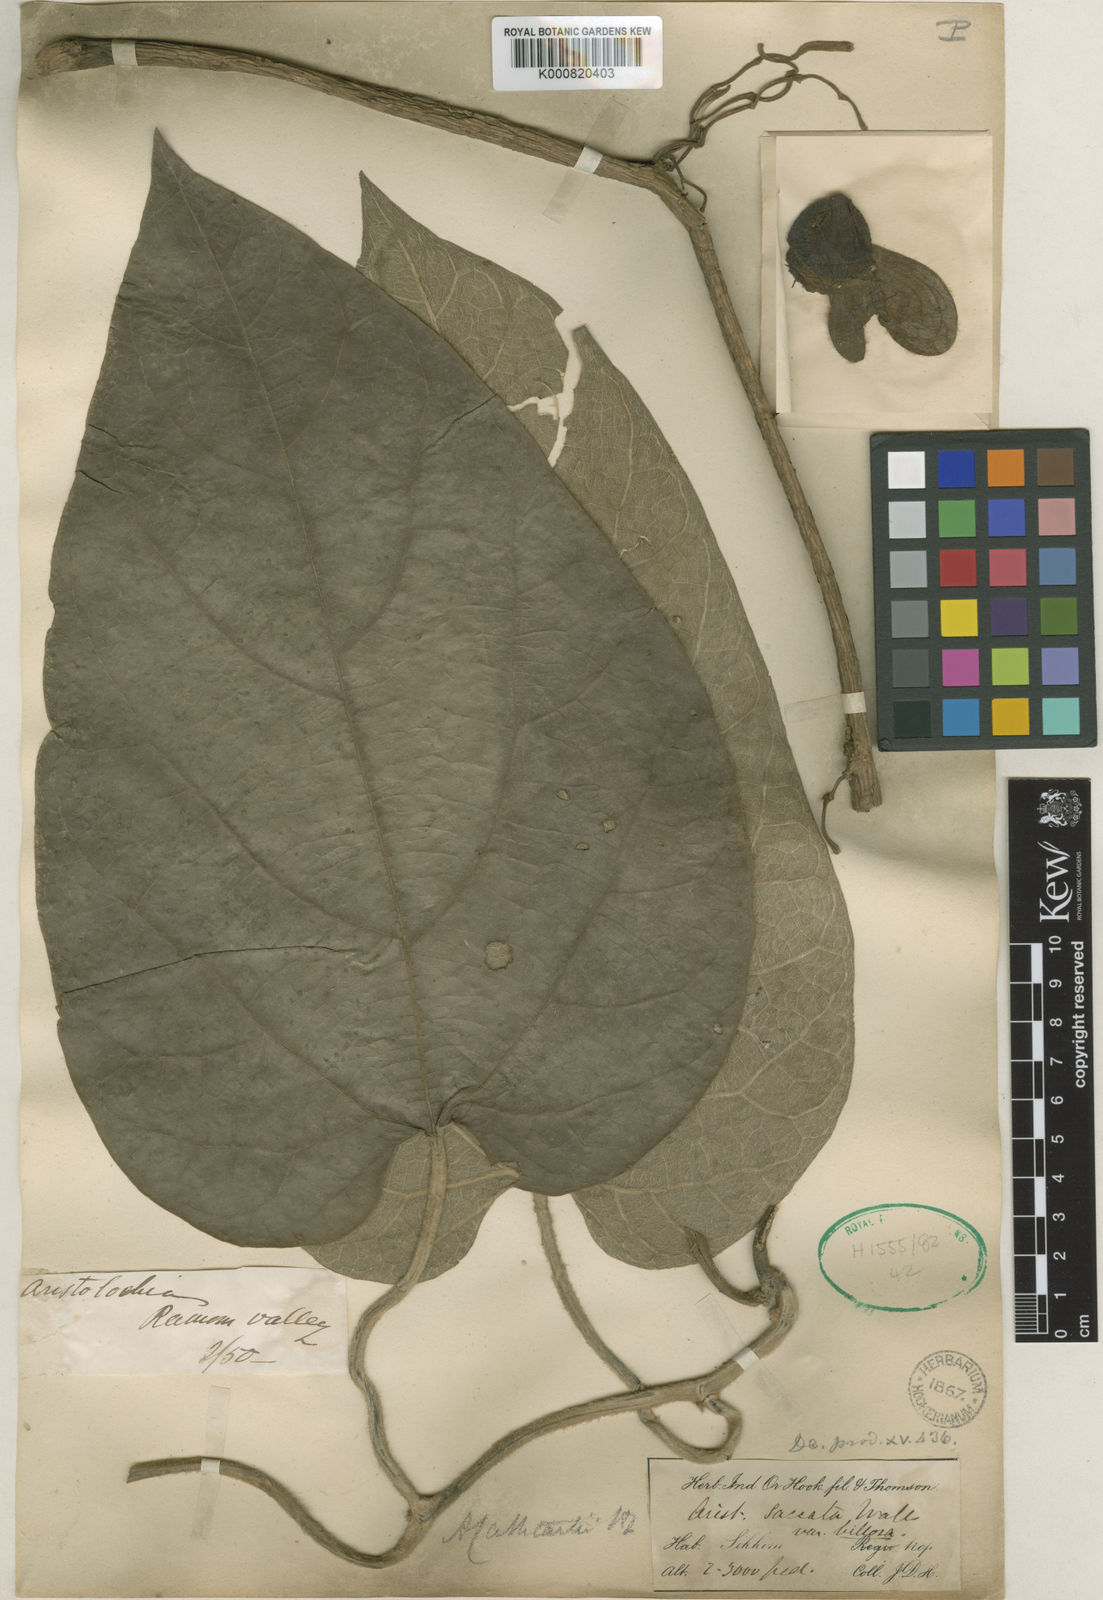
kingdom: Plantae
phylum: Tracheophyta
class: Magnoliopsida
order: Piperales
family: Aristolochiaceae
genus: Isotrema
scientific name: Isotrema
